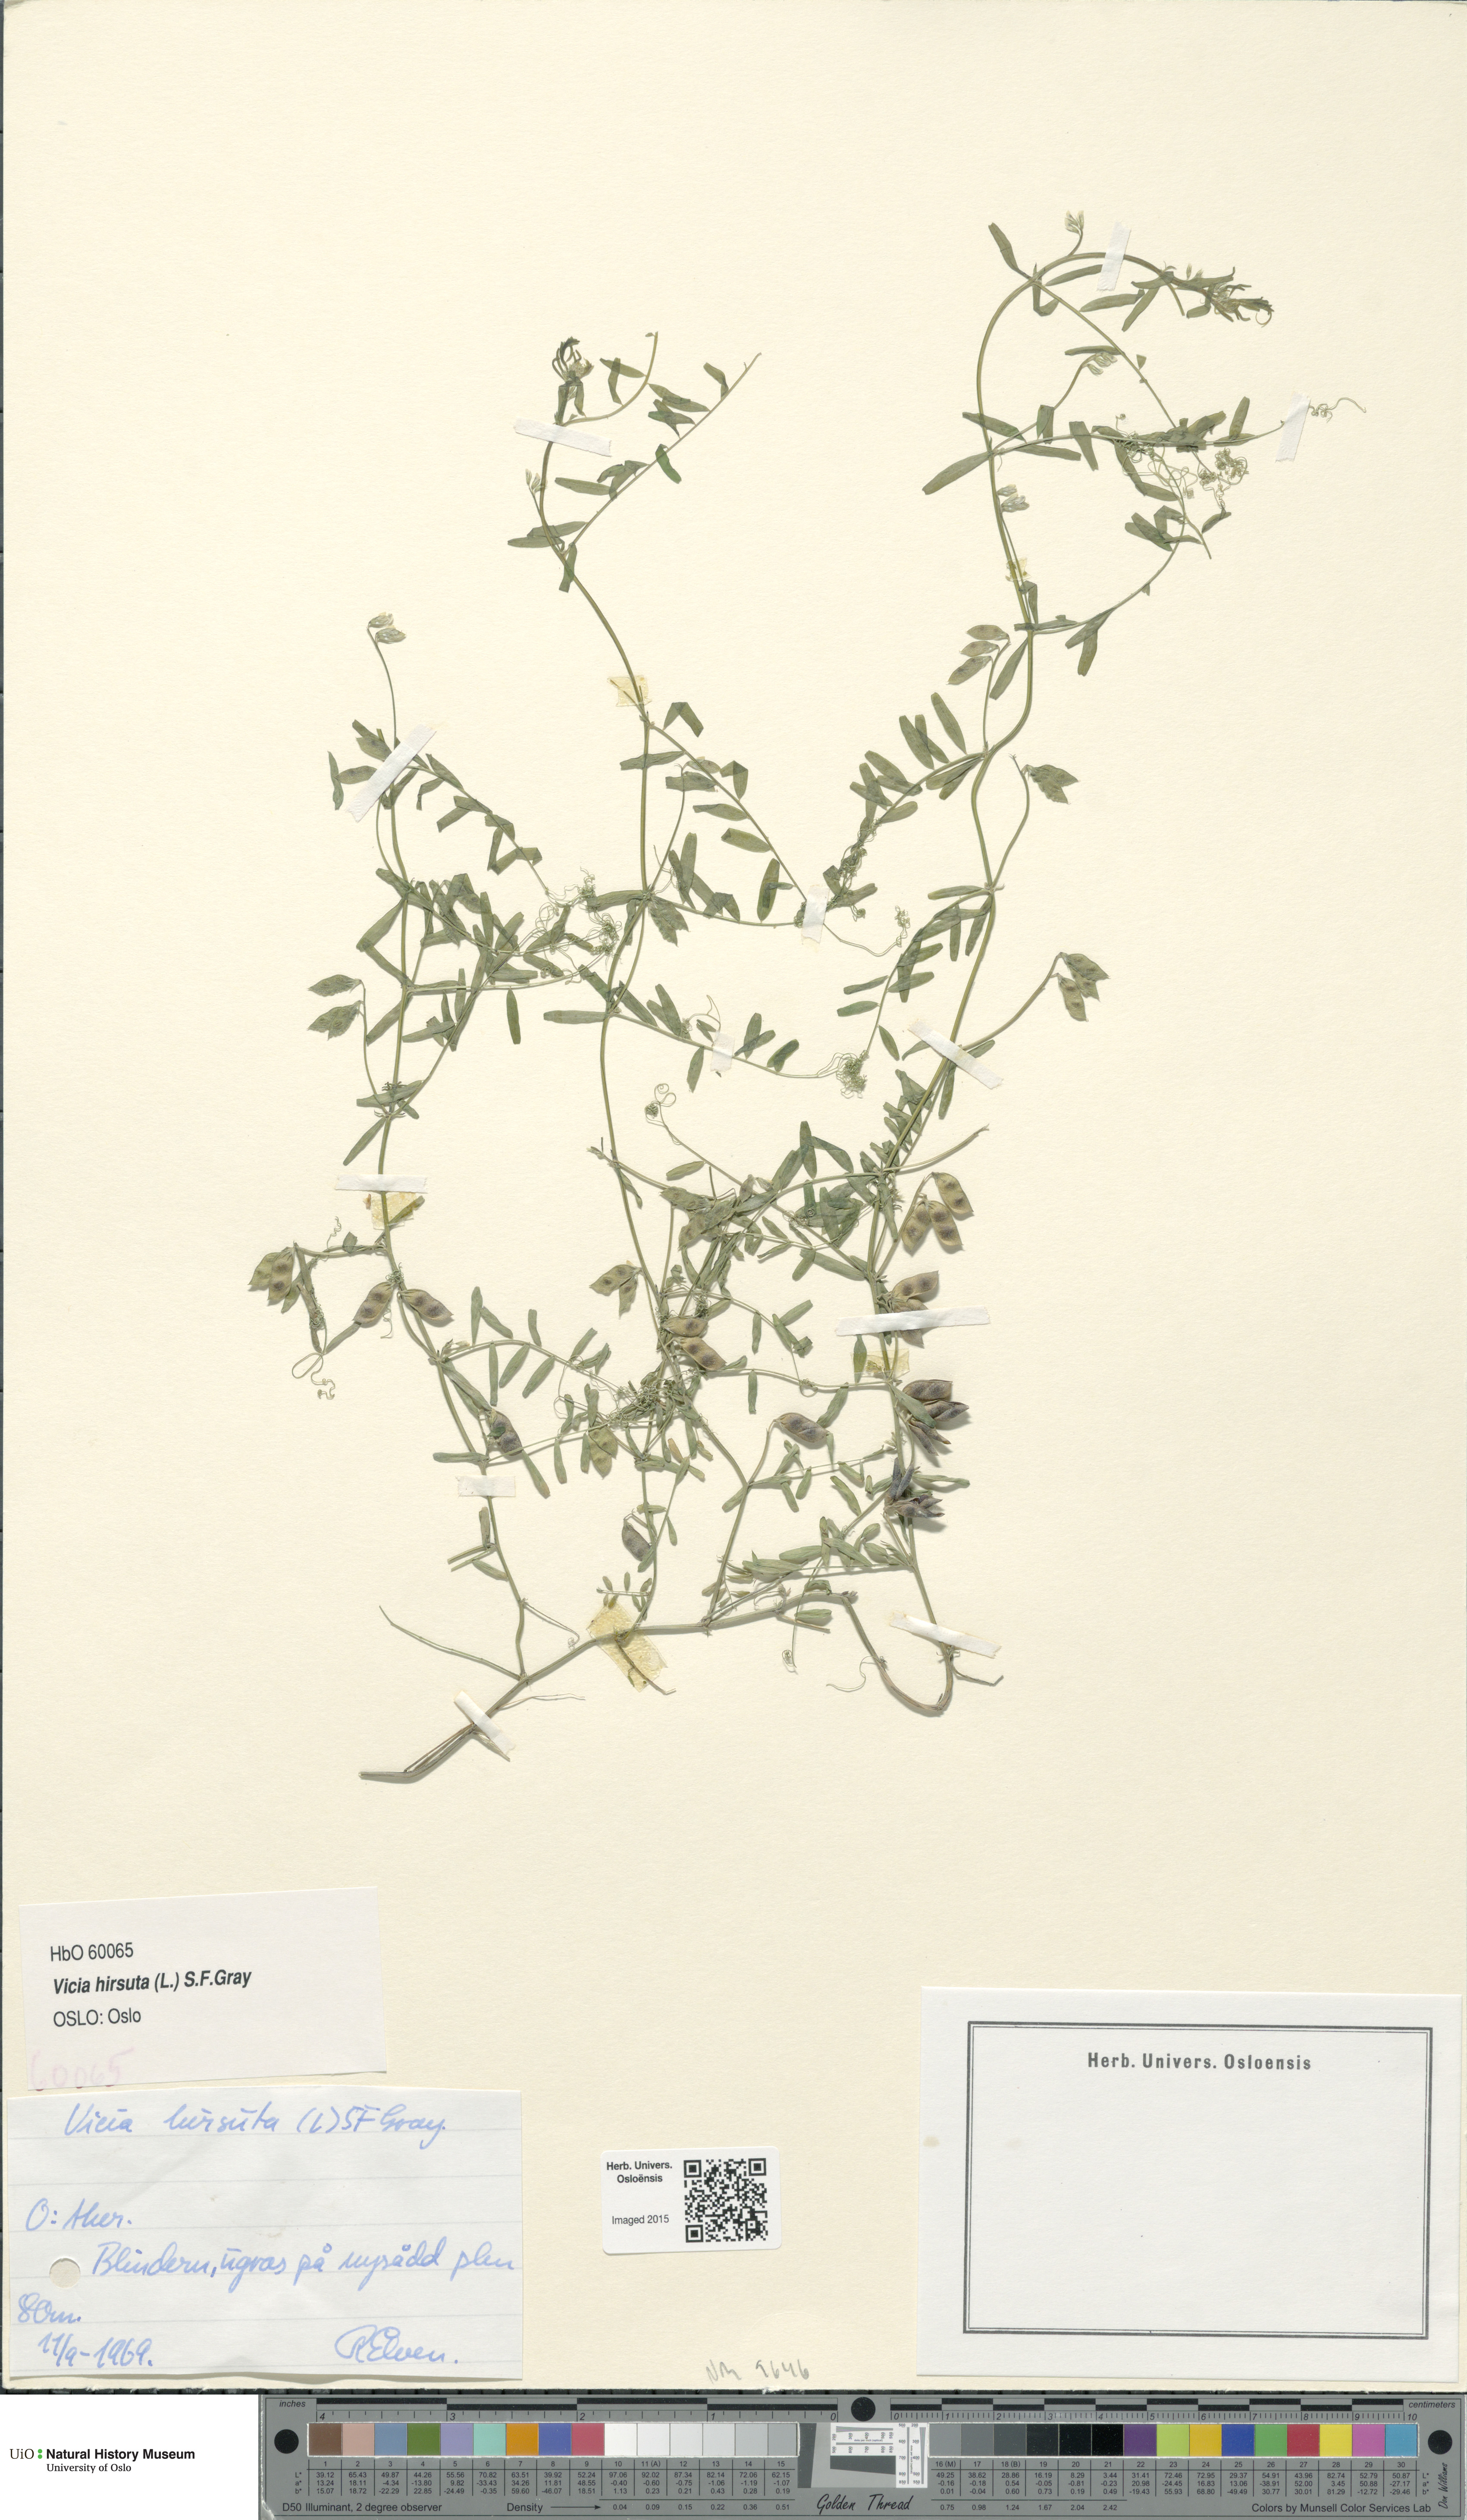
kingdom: Plantae
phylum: Tracheophyta
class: Magnoliopsida
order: Fabales
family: Fabaceae
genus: Vicia
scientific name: Vicia hirsuta
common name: Tiny vetch
